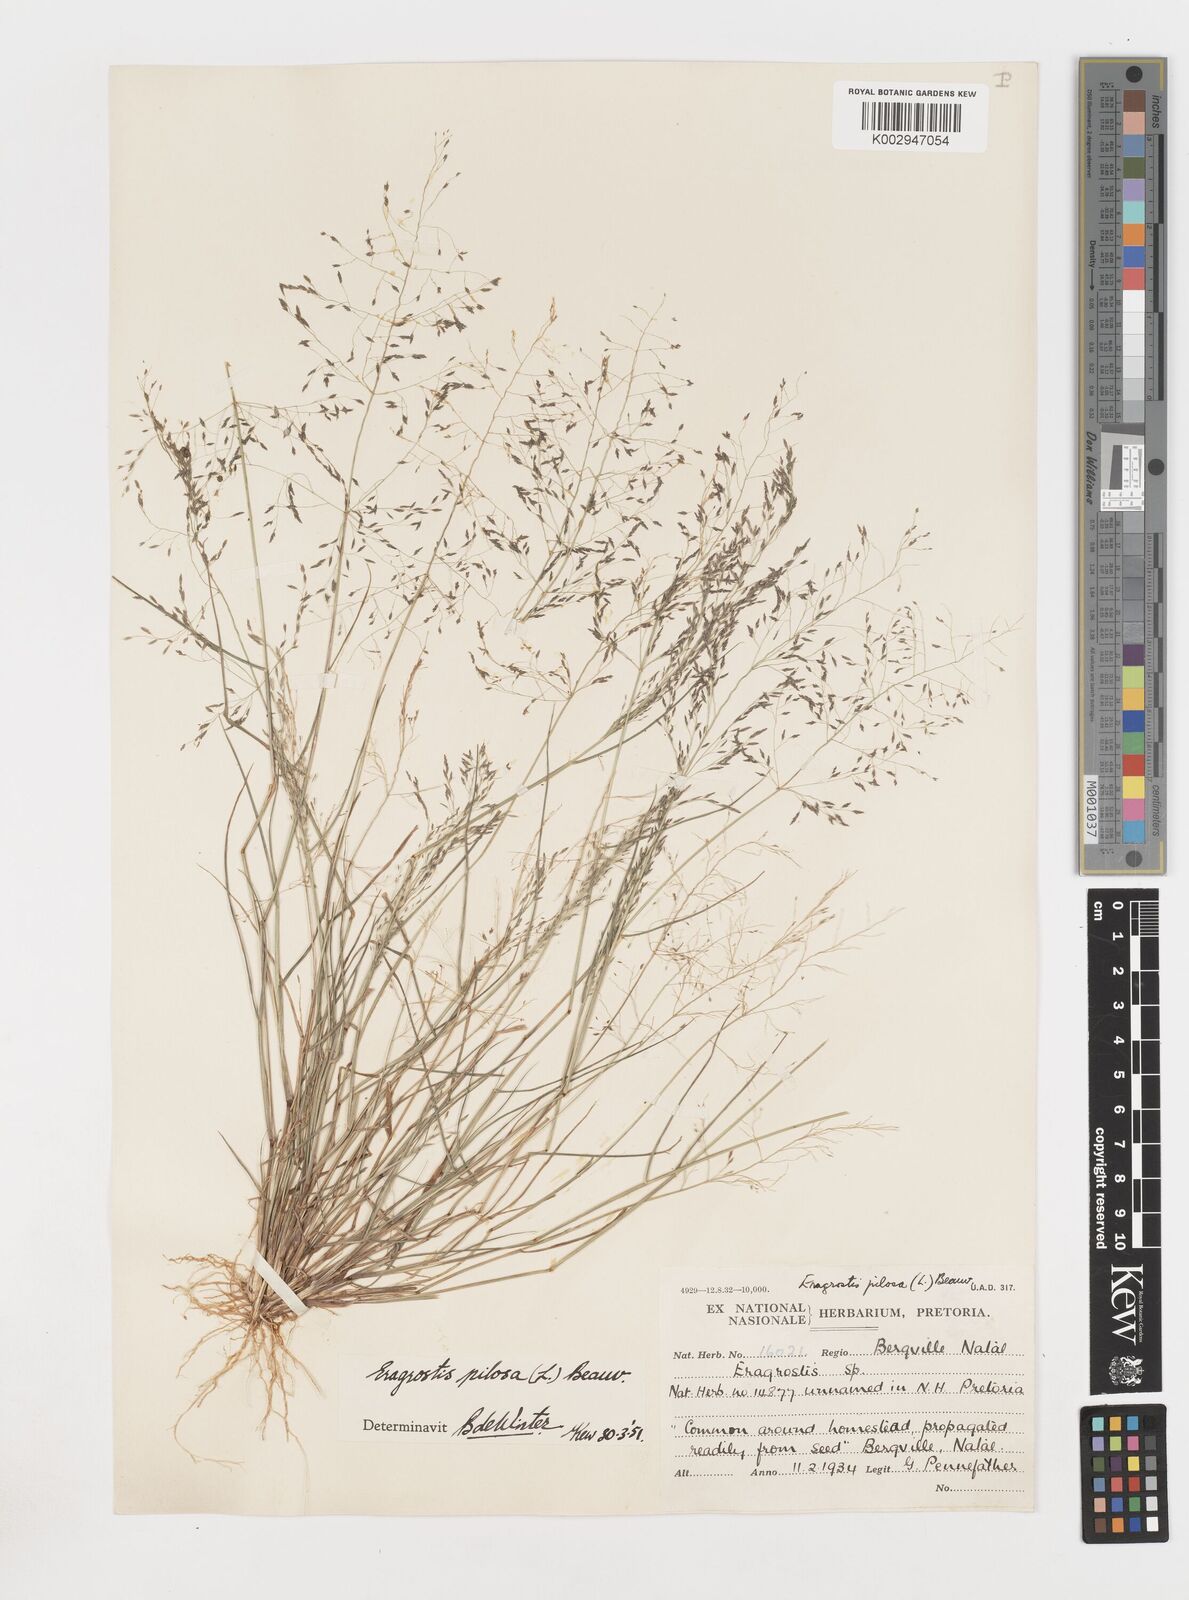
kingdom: Plantae
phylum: Tracheophyta
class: Liliopsida
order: Poales
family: Poaceae
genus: Eragrostis
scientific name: Eragrostis pilosa
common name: Indian lovegrass
